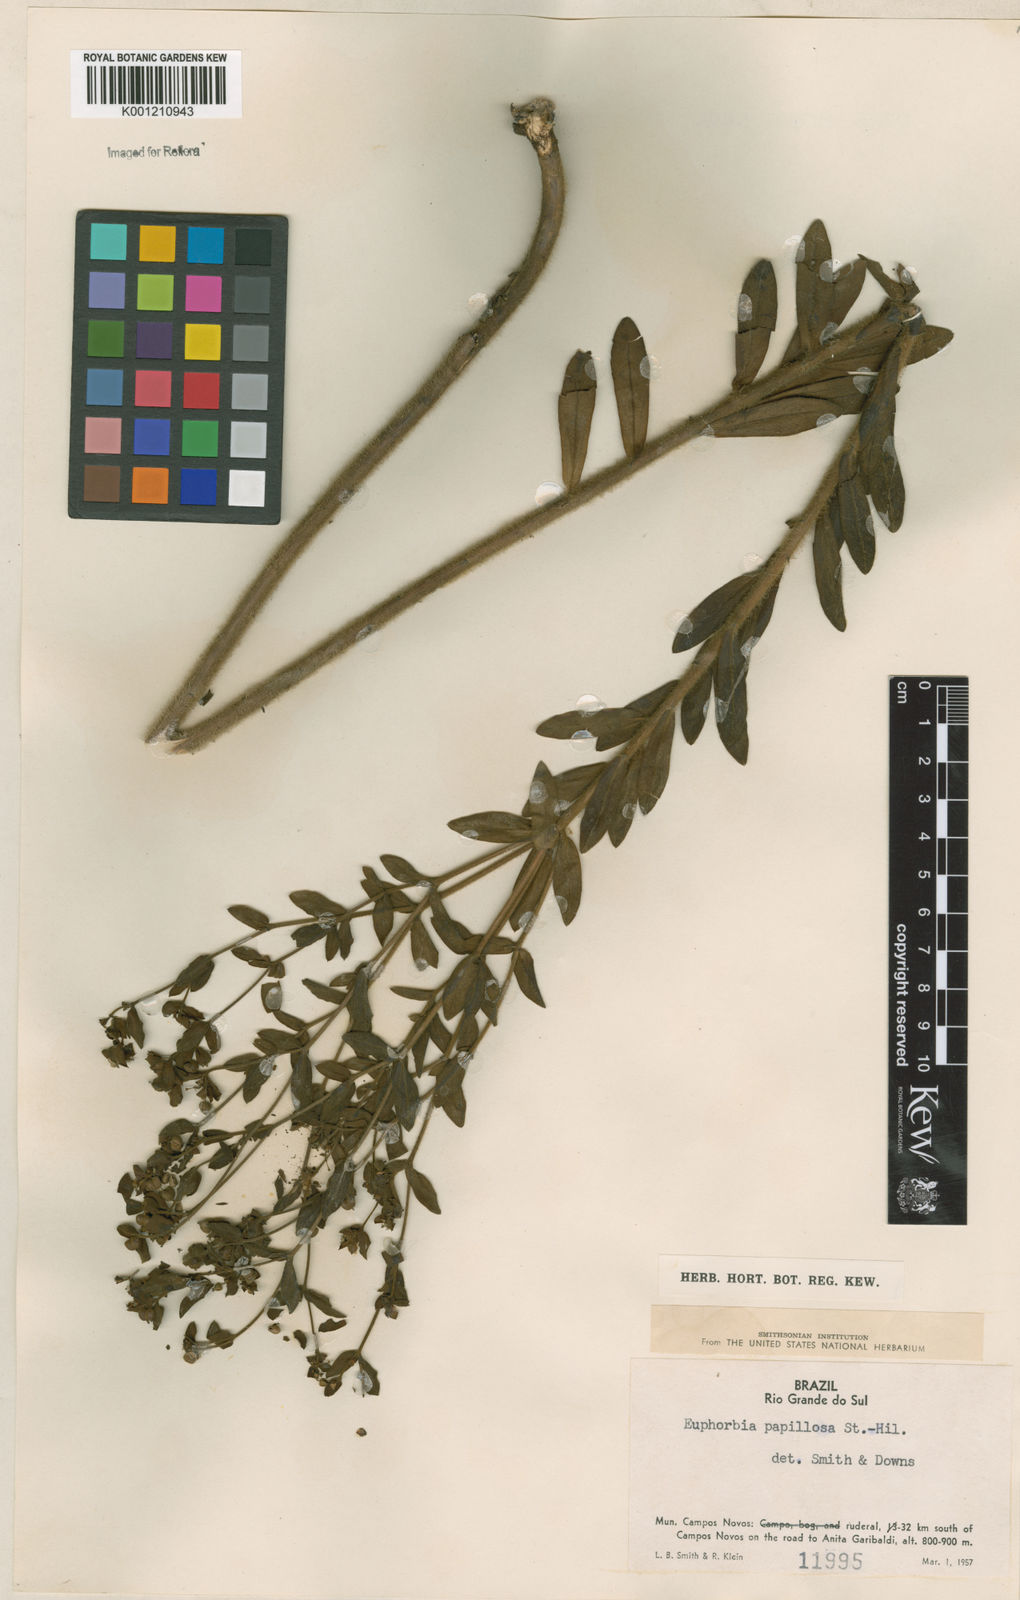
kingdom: Plantae
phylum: Tracheophyta
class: Magnoliopsida
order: Malpighiales
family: Euphorbiaceae
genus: Euphorbia
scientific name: Euphorbia papillosa
